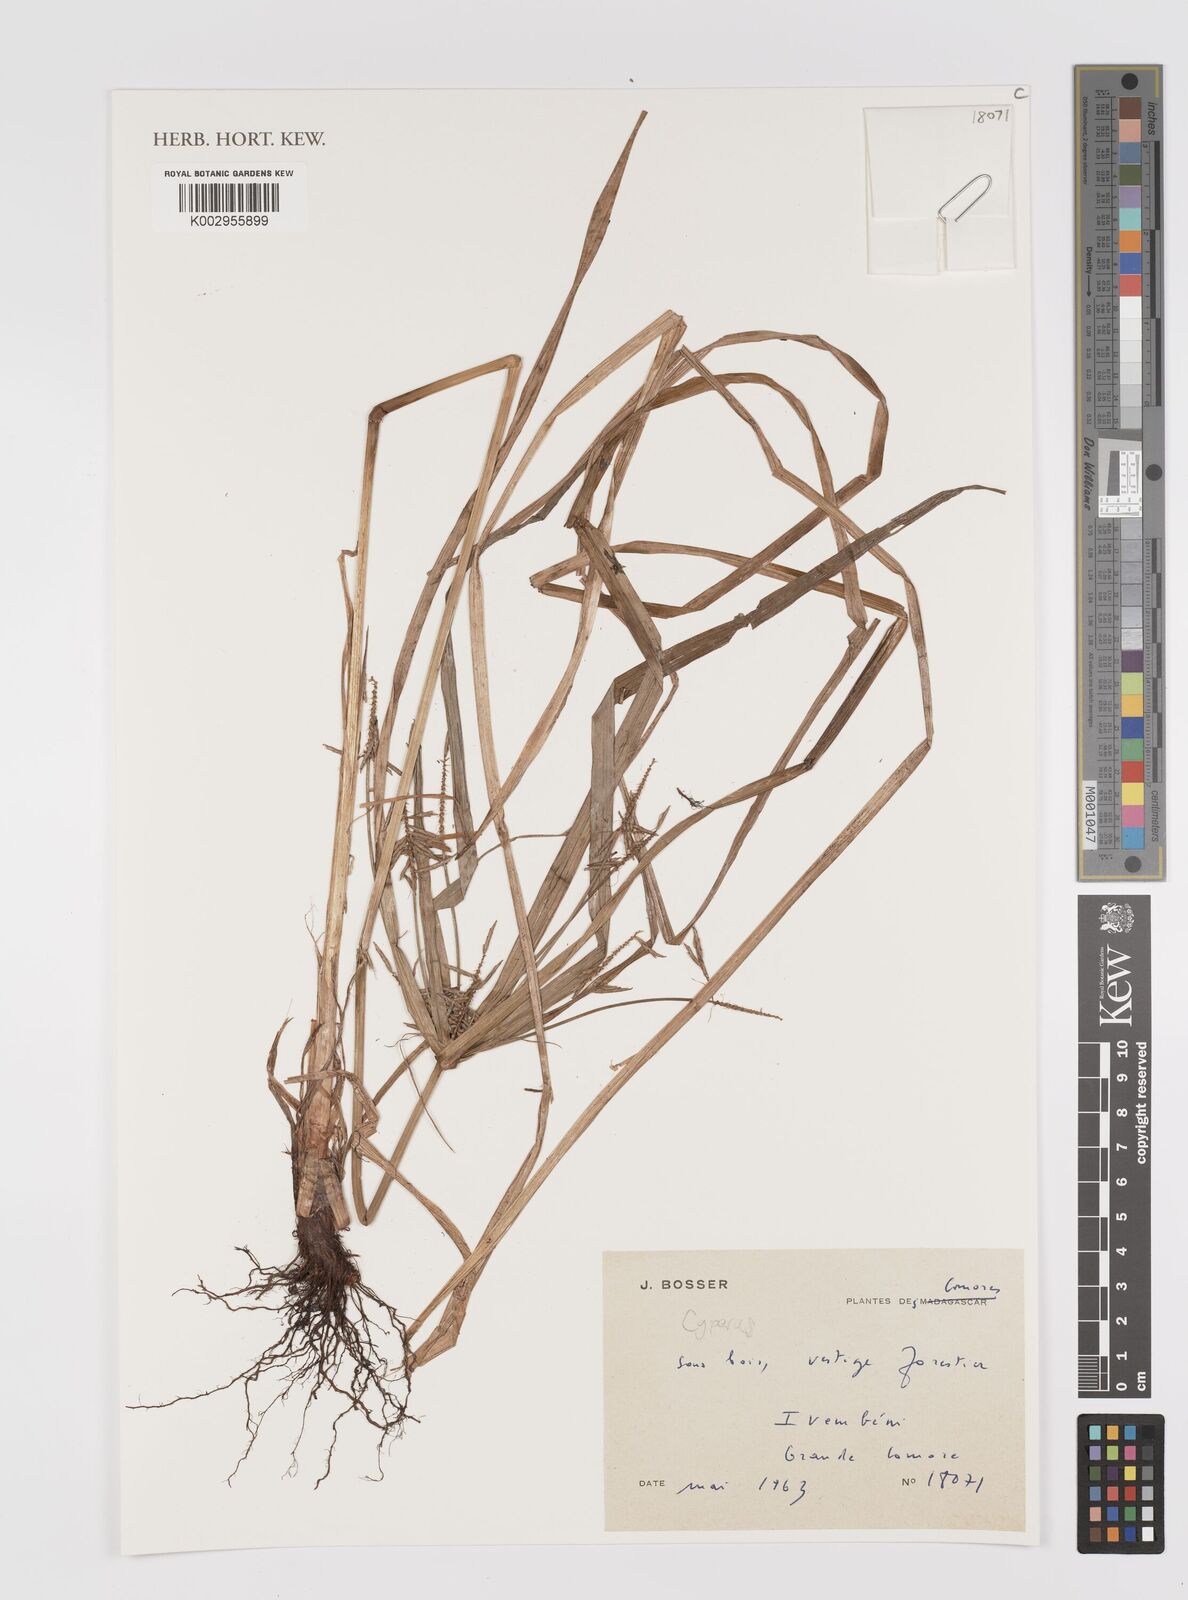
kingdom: Plantae
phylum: Tracheophyta
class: Liliopsida
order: Poales
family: Cyperaceae
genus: Cyperus
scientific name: Cyperus
